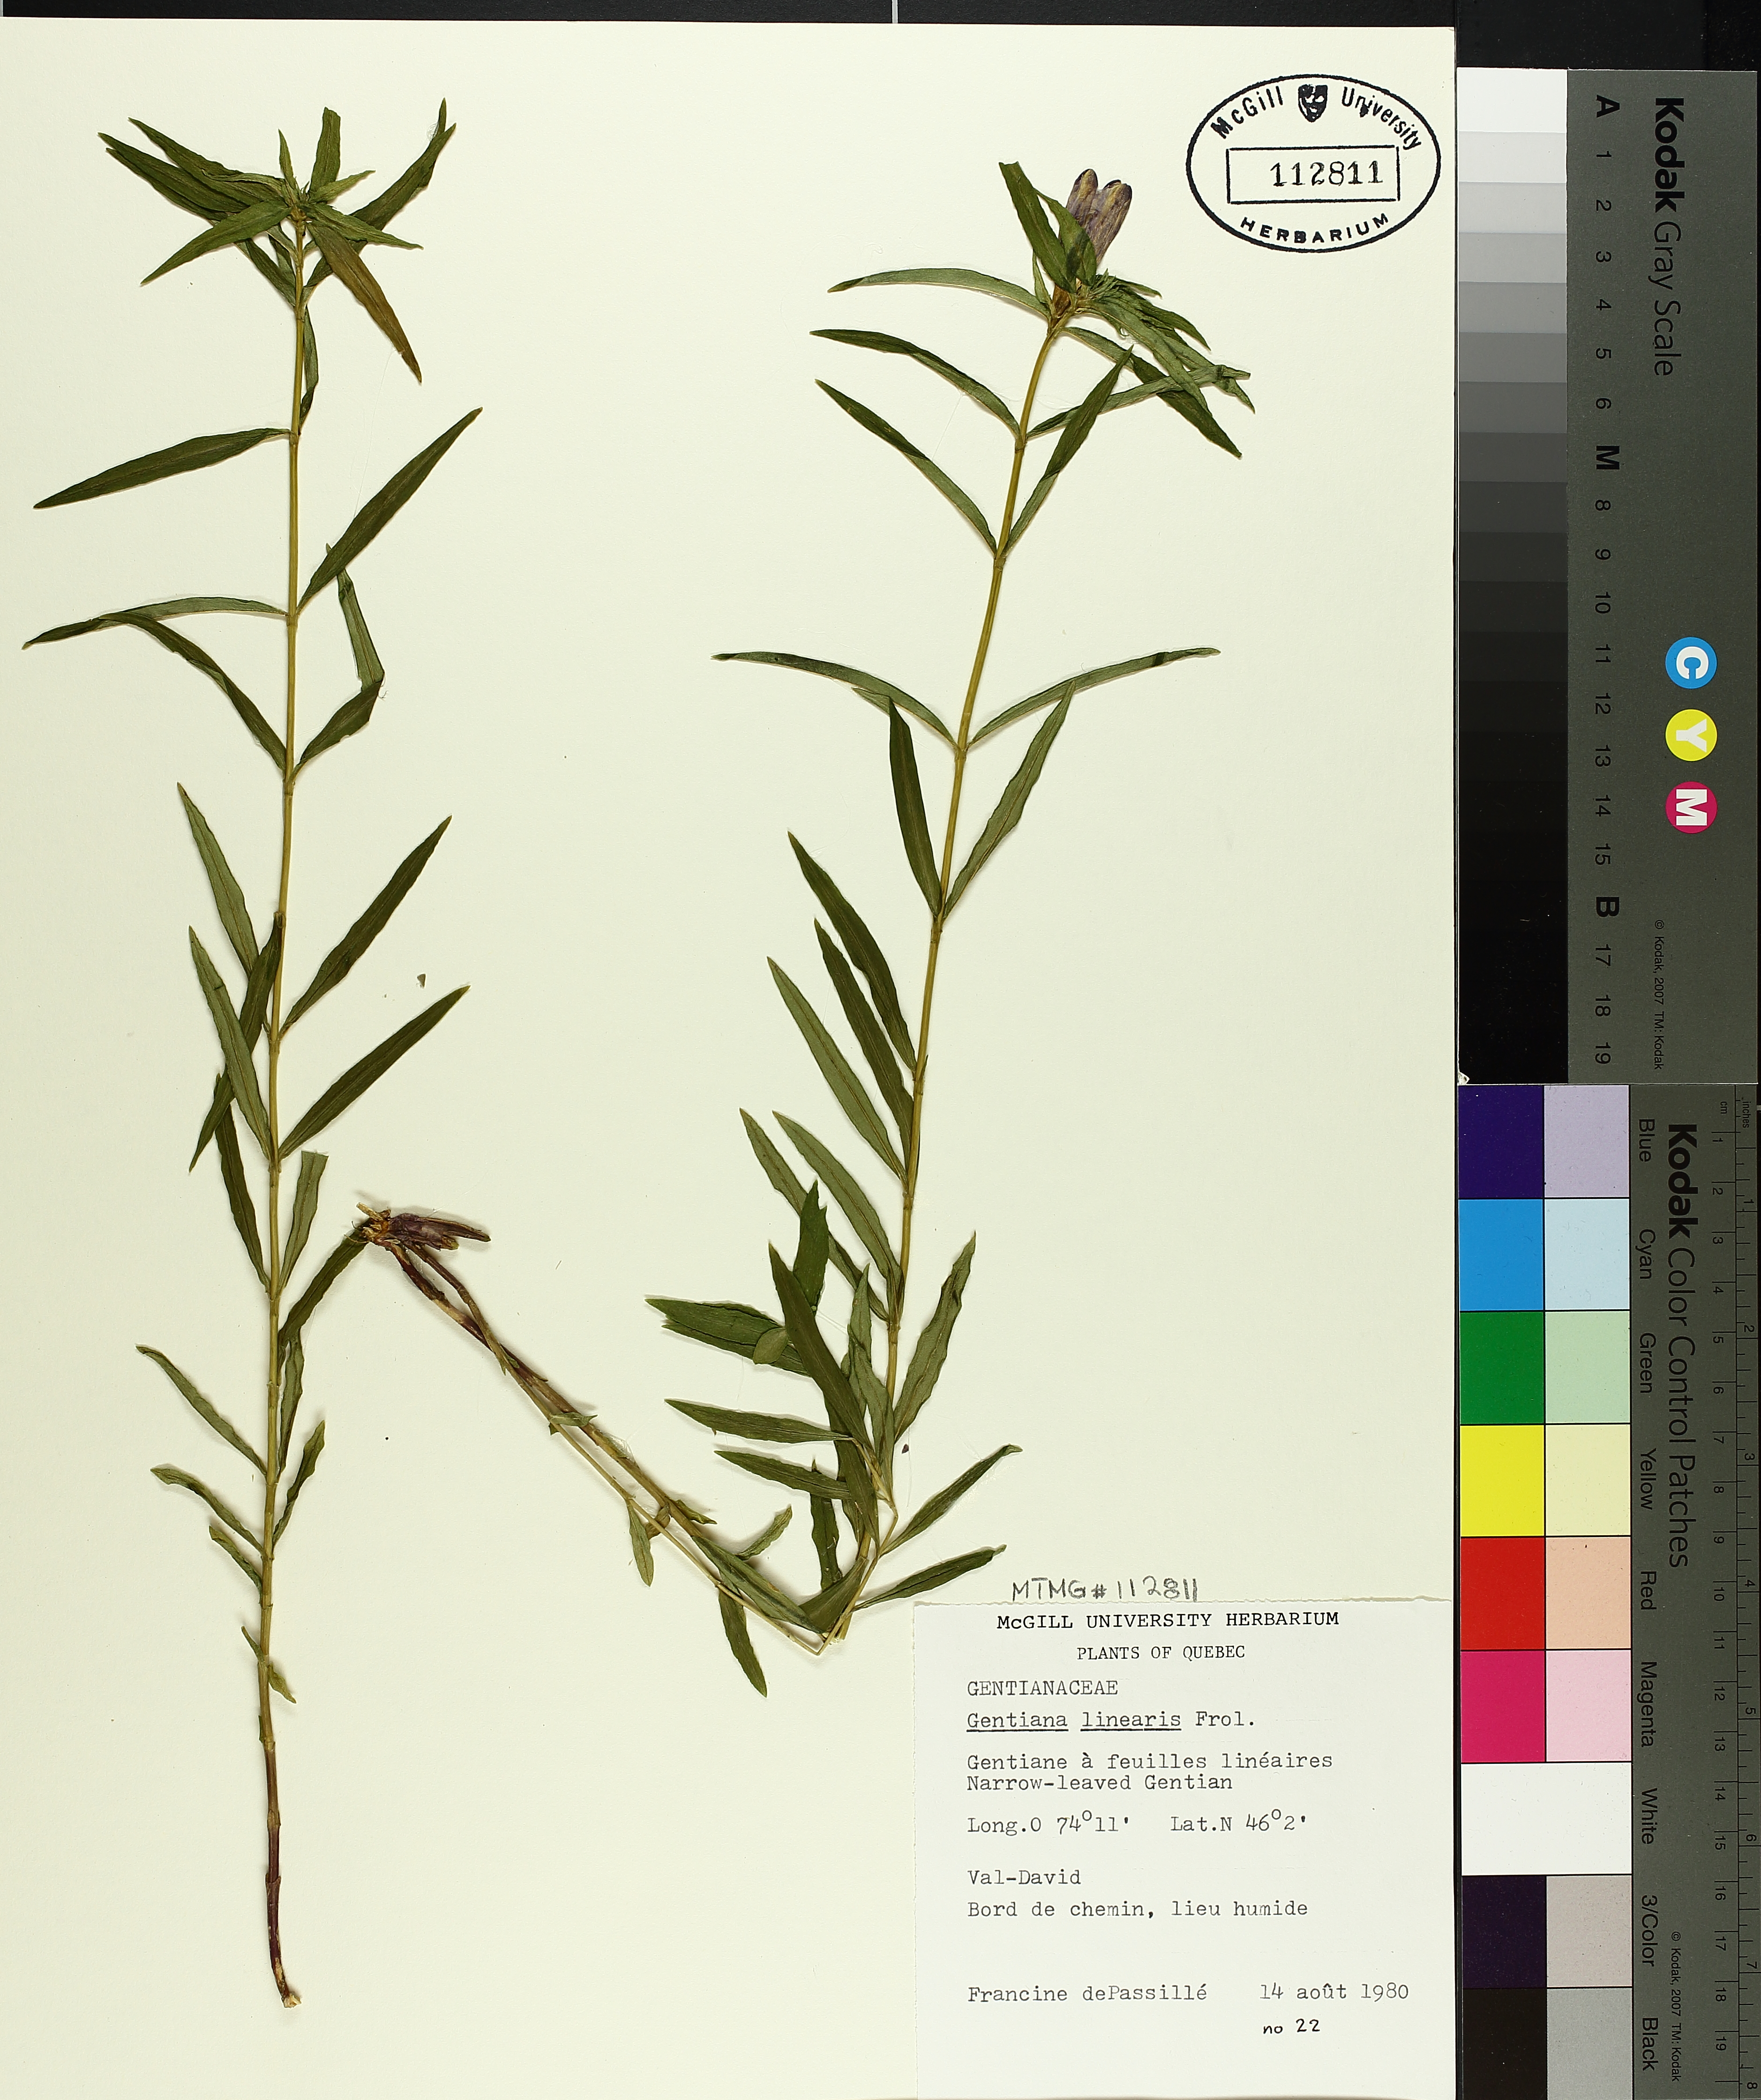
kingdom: Plantae
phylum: Tracheophyta
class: Magnoliopsida
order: Gentianales
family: Gentianaceae
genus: Gentiana
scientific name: Gentiana linearis
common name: Bastard gentian
